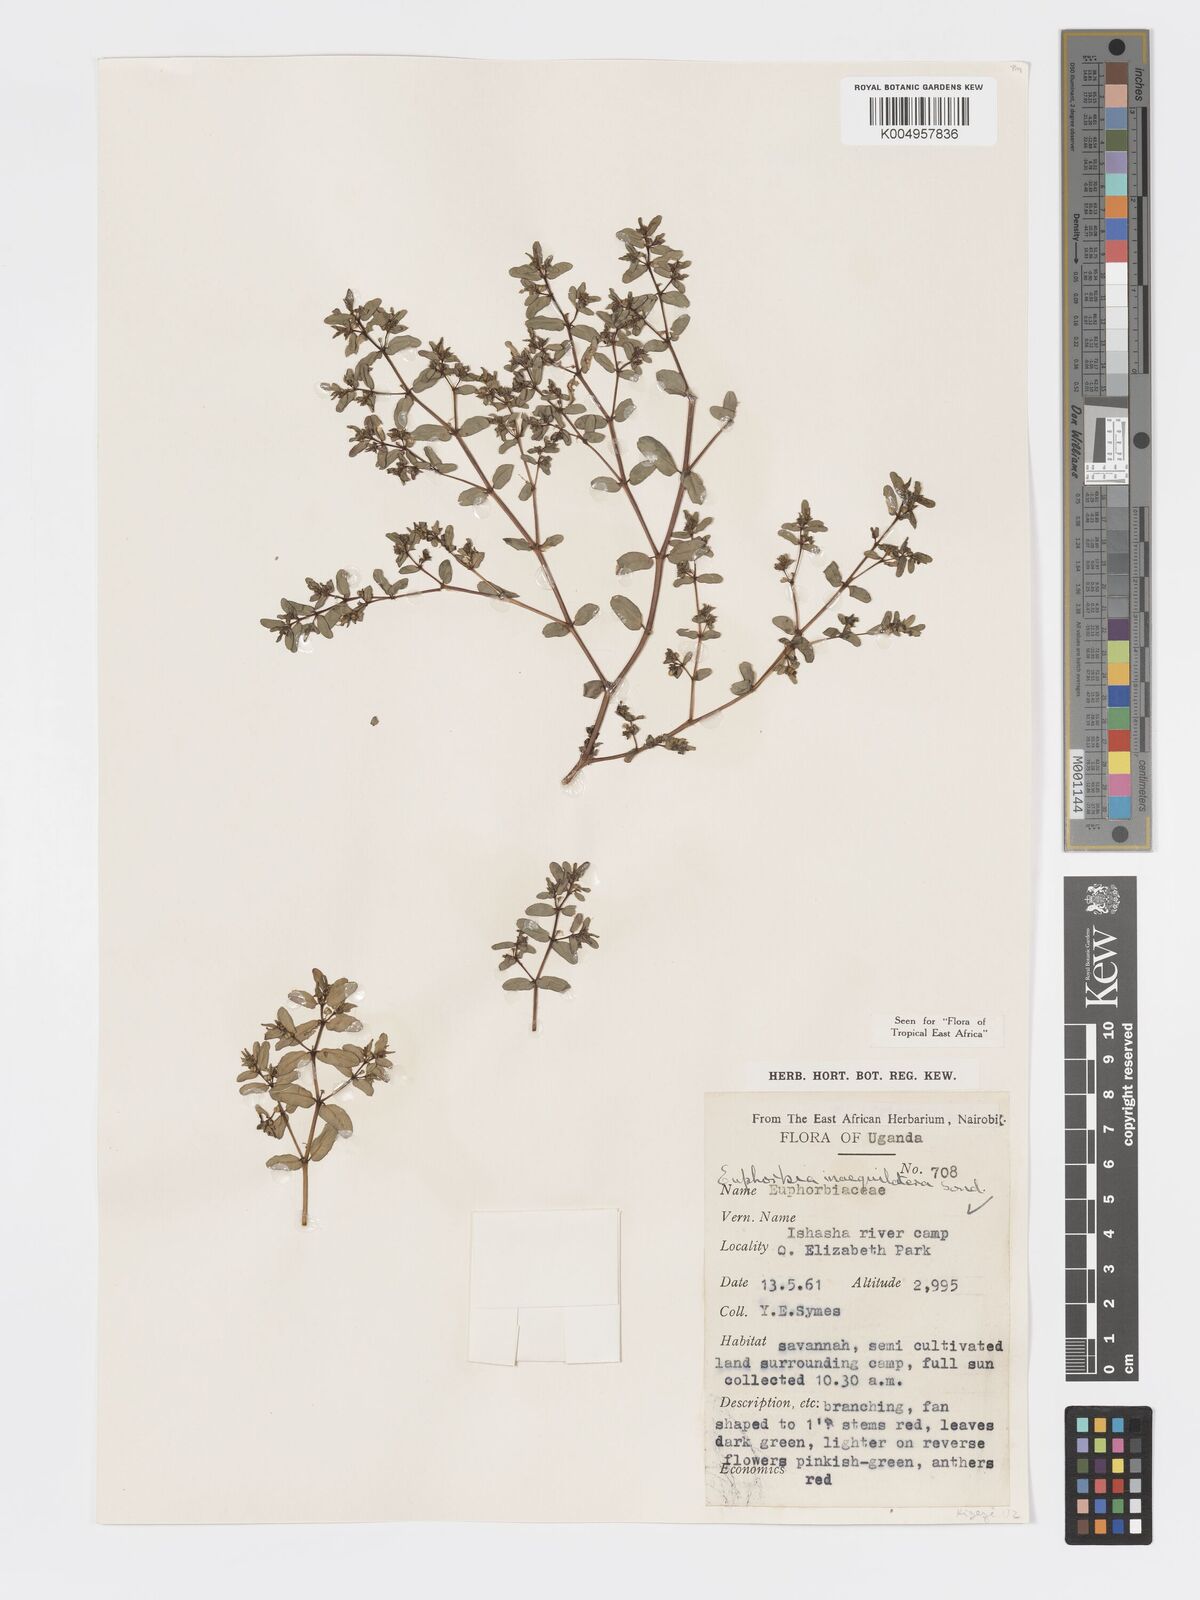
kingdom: Plantae
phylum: Tracheophyta
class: Magnoliopsida
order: Malpighiales
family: Euphorbiaceae
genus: Euphorbia
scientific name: Euphorbia inaequilatera
